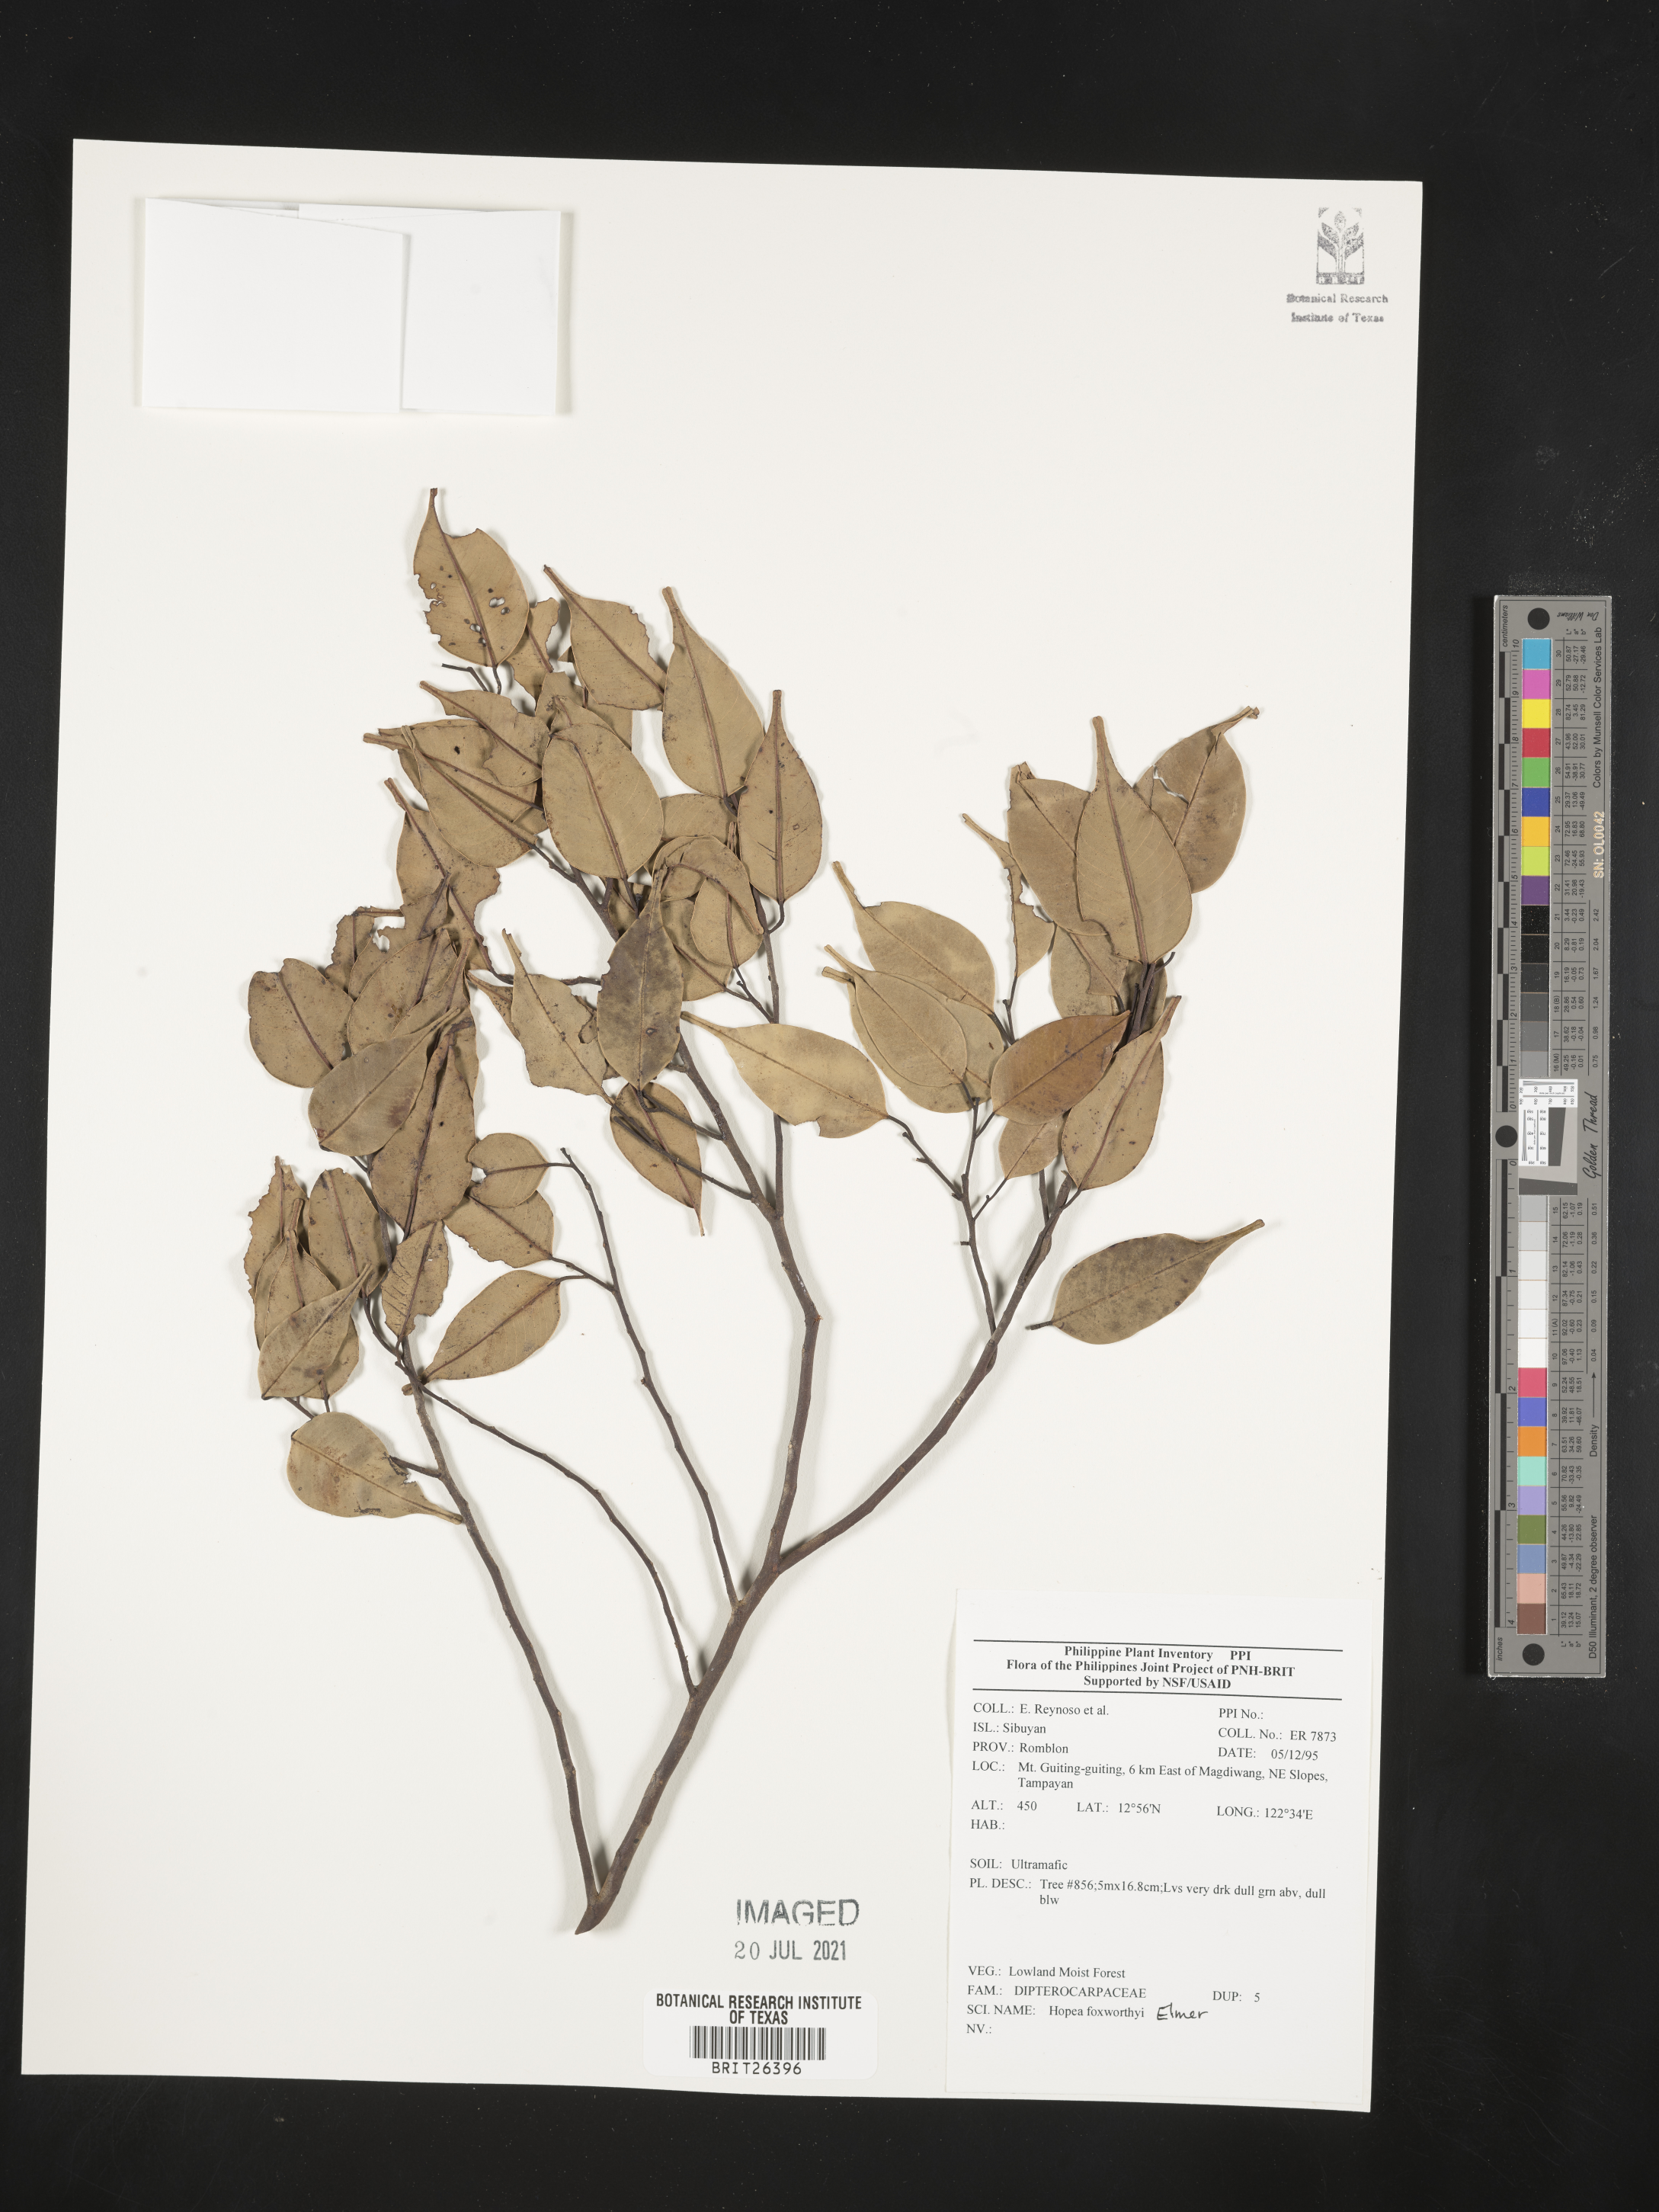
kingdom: Plantae
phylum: Tracheophyta
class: Magnoliopsida
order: Malvales
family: Dipterocarpaceae
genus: Hopea
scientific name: Hopea foxworthyi
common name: Dalingdingan
